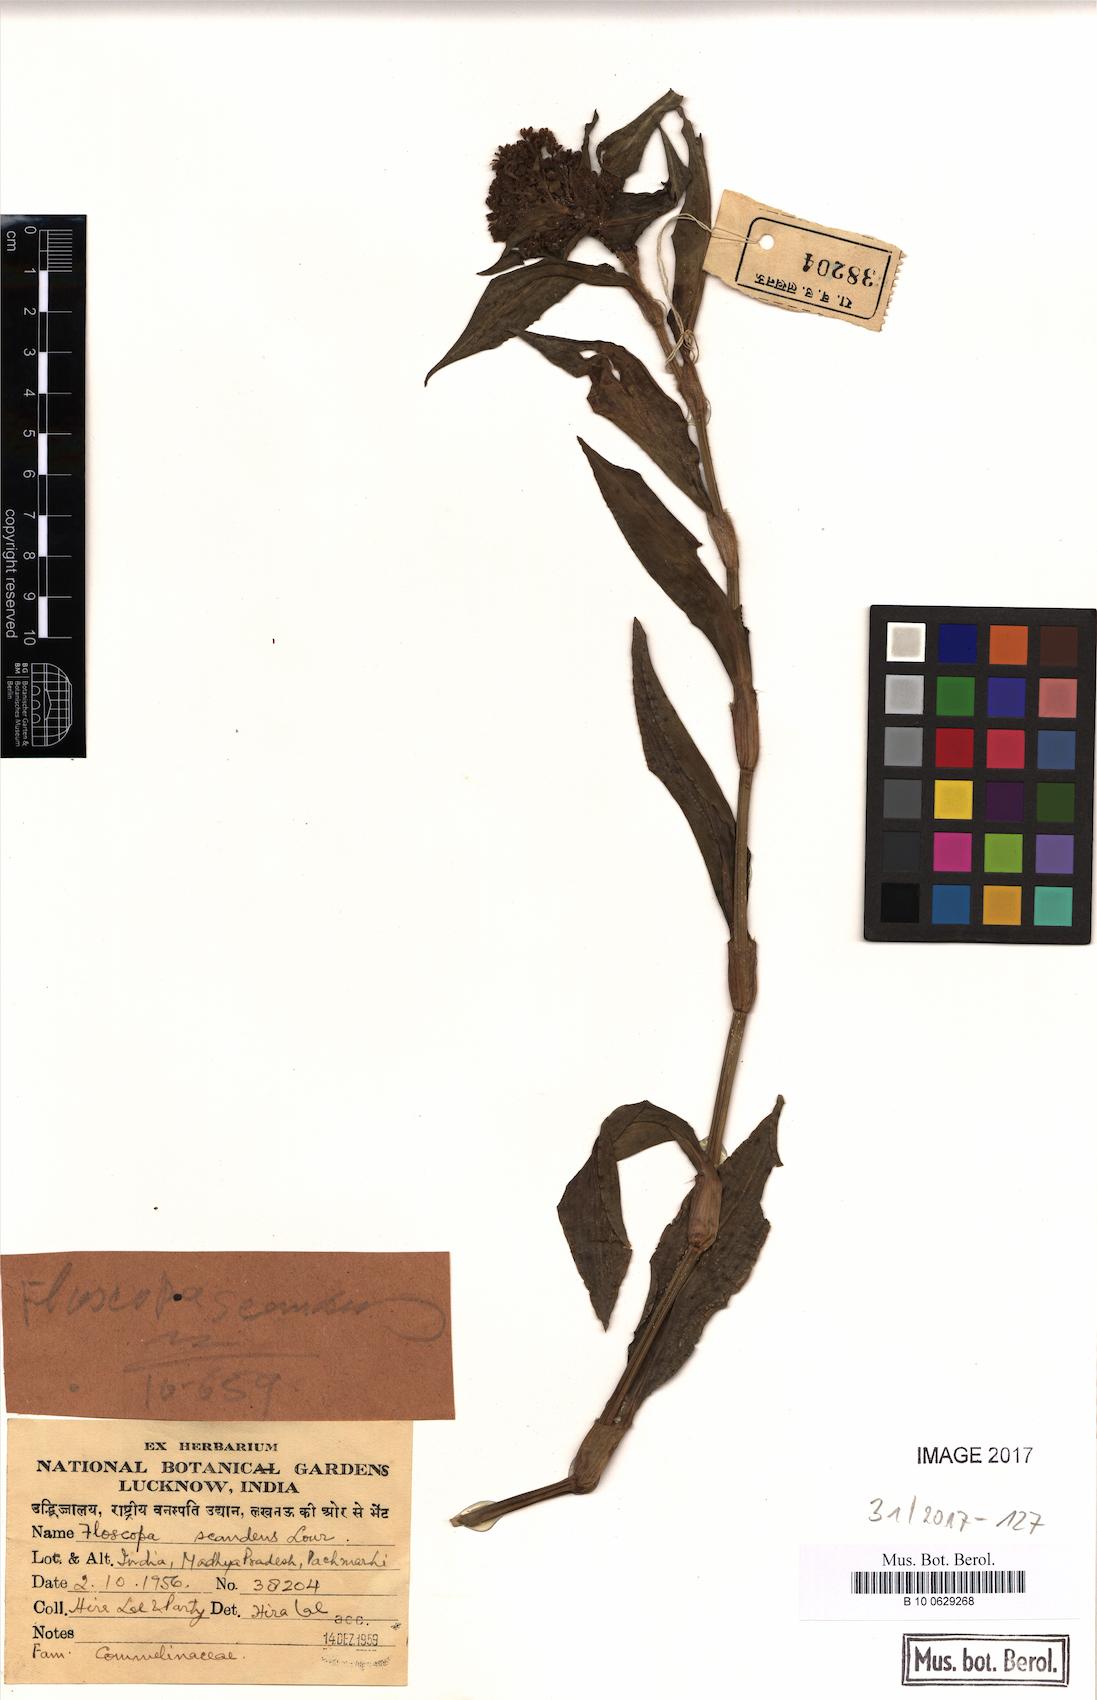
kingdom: Plantae
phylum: Tracheophyta
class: Liliopsida
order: Commelinales
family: Commelinaceae
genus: Floscopa
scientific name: Floscopa scandens
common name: Climbing flower cup
